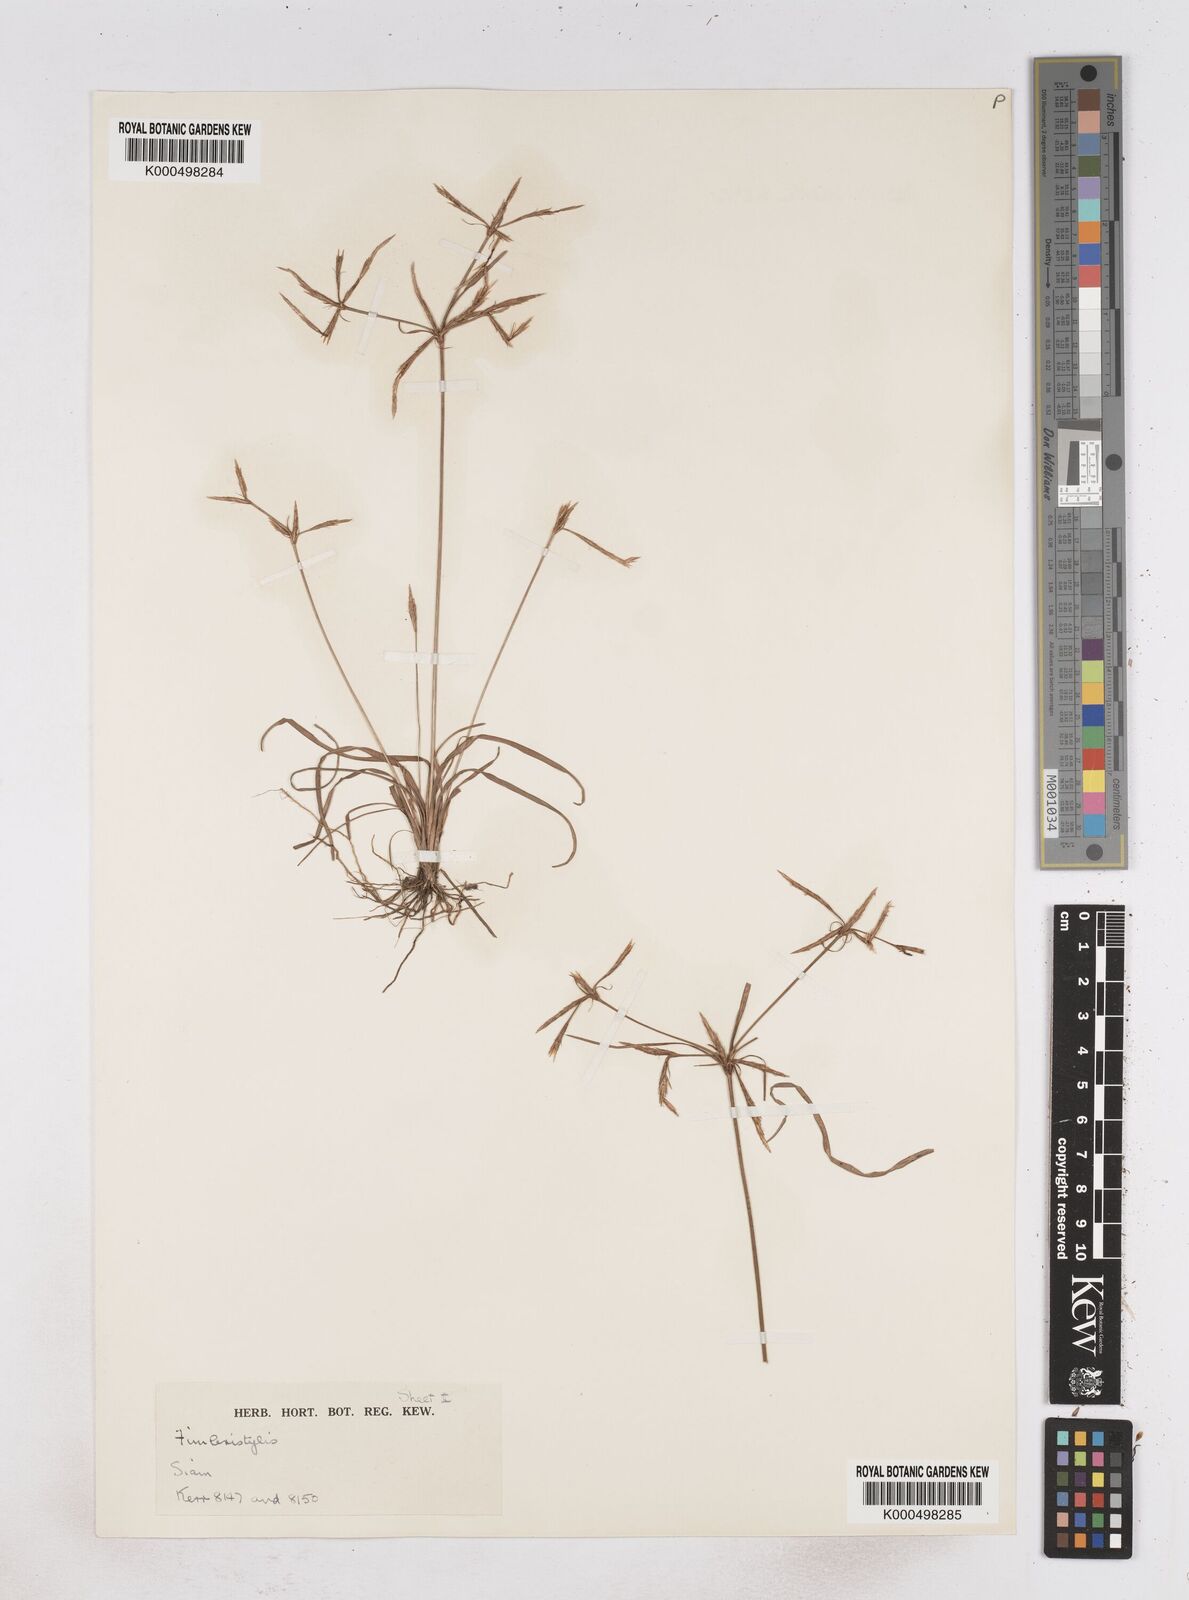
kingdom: Plantae
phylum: Tracheophyta
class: Liliopsida
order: Poales
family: Cyperaceae
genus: Fimbristylis
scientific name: Fimbristylis hookeriana
